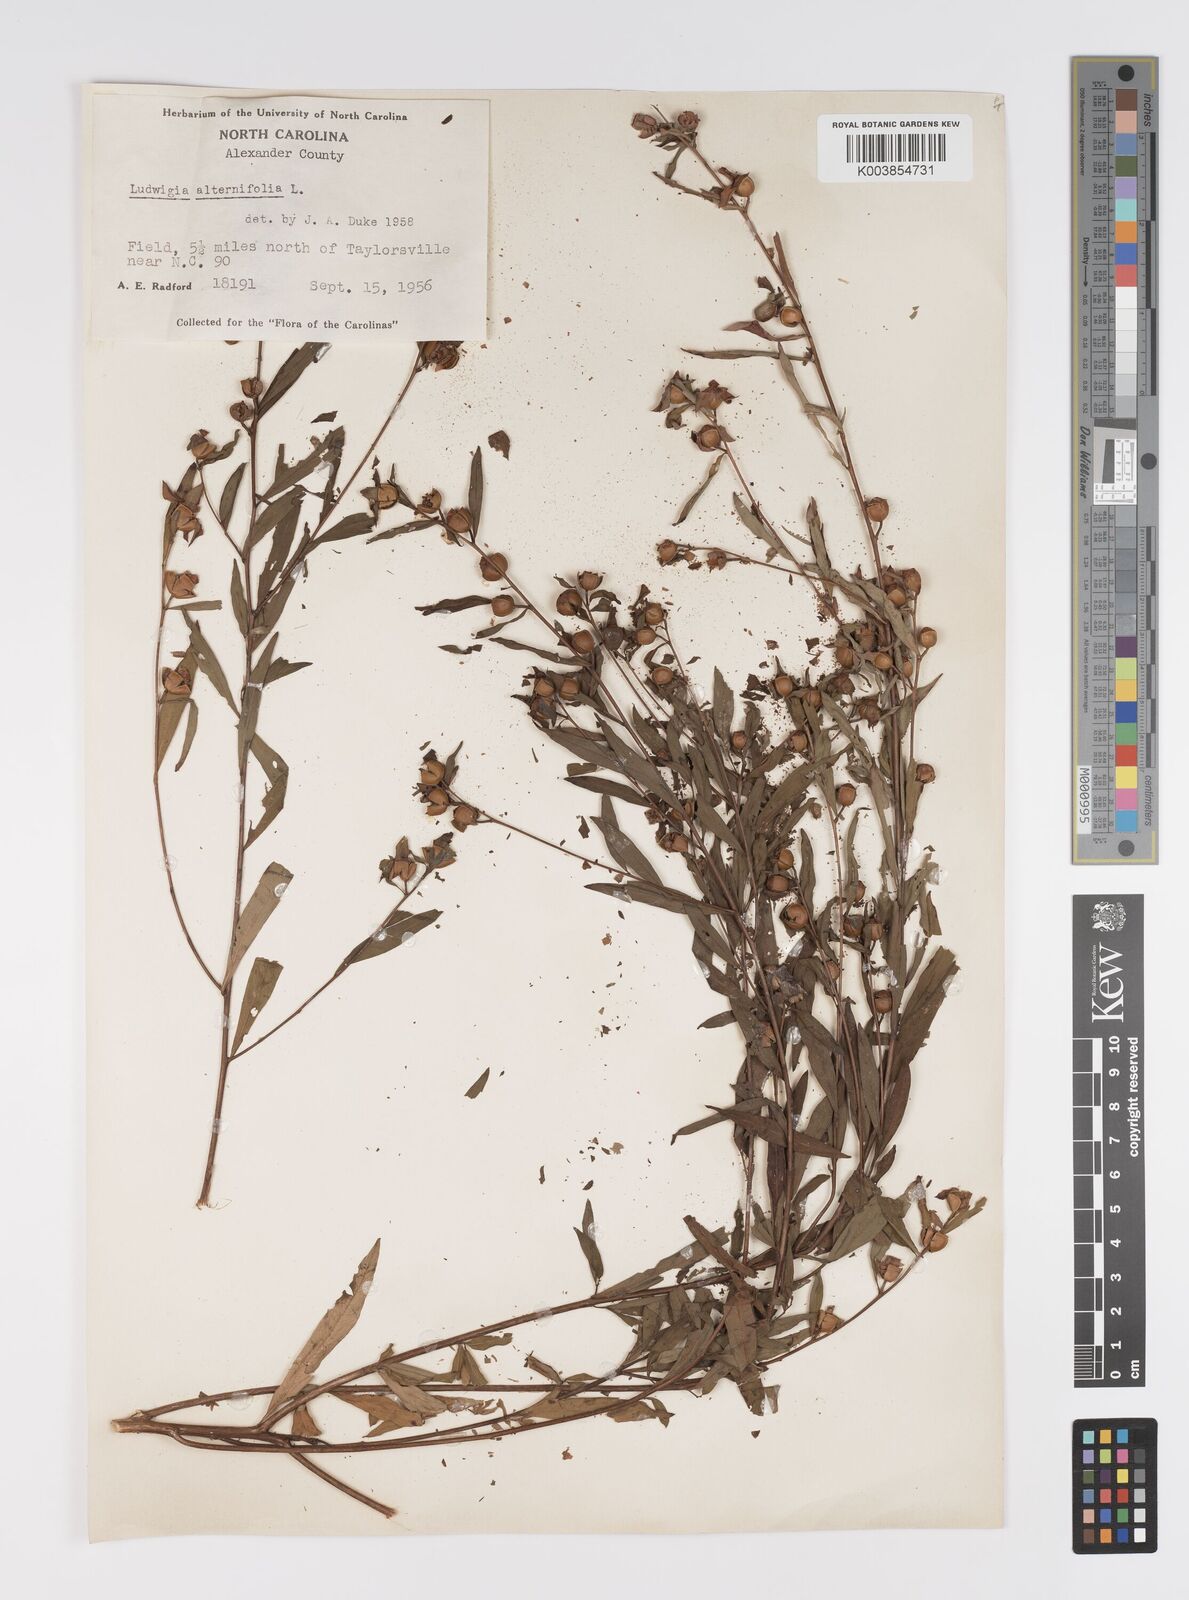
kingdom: Plantae
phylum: Tracheophyta
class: Magnoliopsida
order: Myrtales
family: Onagraceae
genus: Ludwigia
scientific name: Ludwigia alternifolia
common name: Rattlebox
